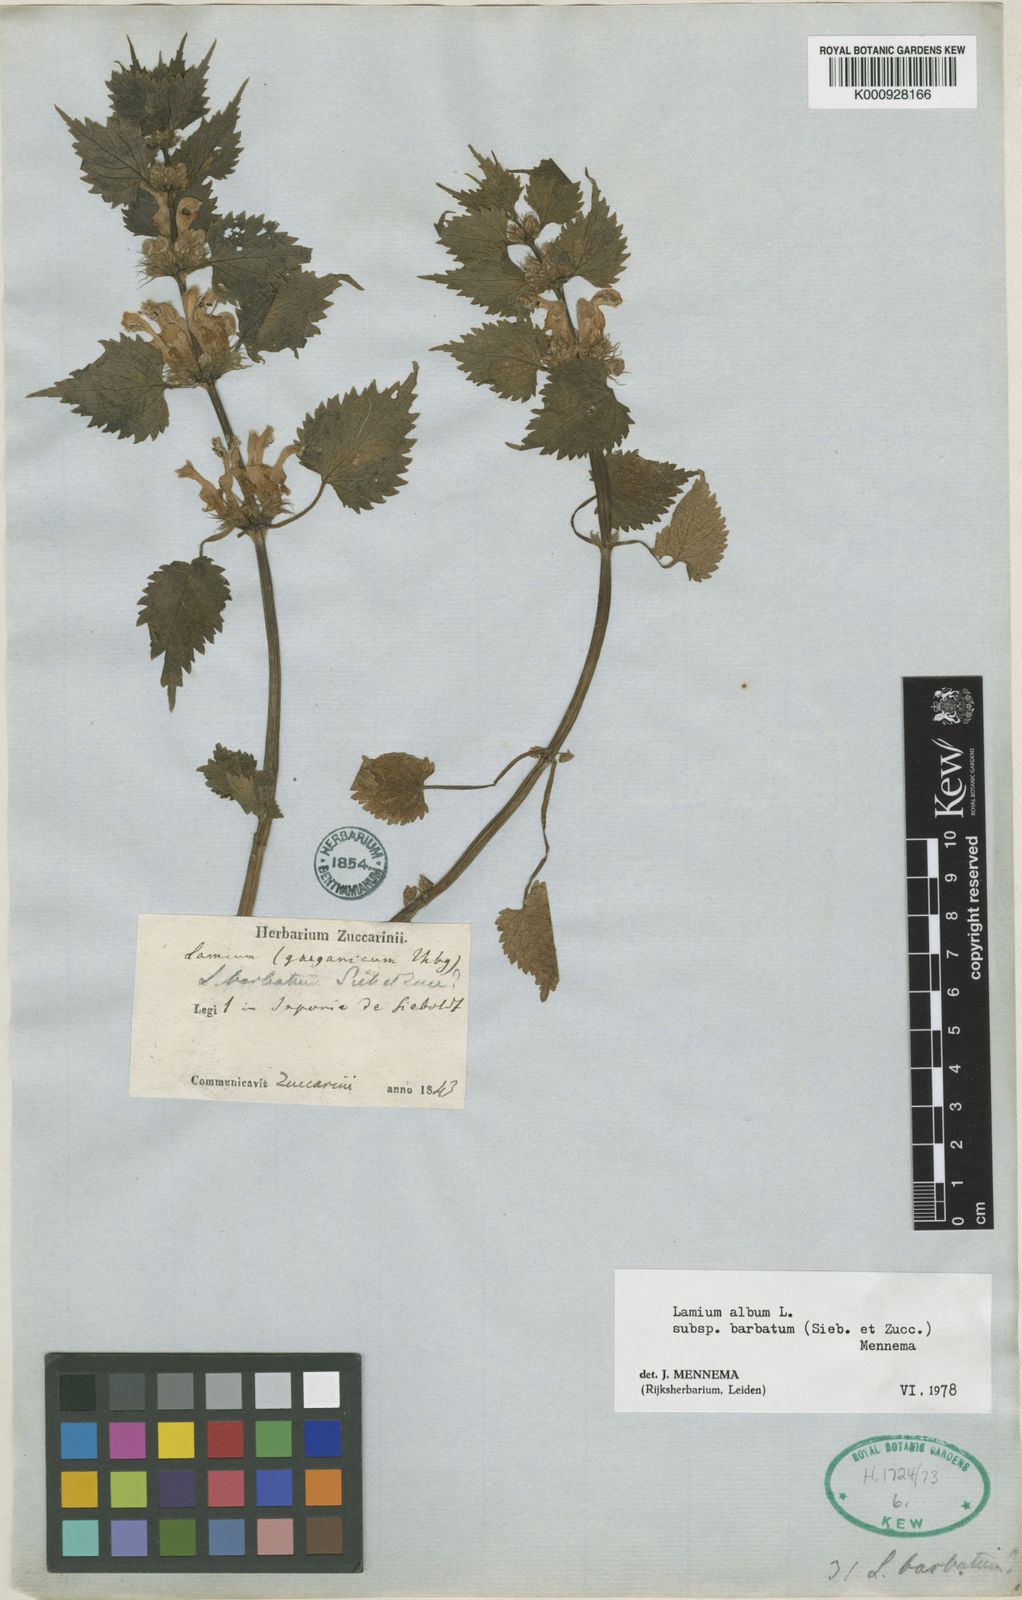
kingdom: Plantae
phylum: Tracheophyta
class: Magnoliopsida
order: Lamiales
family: Lamiaceae
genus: Lamium
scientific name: Lamium album
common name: White dead-nettle
